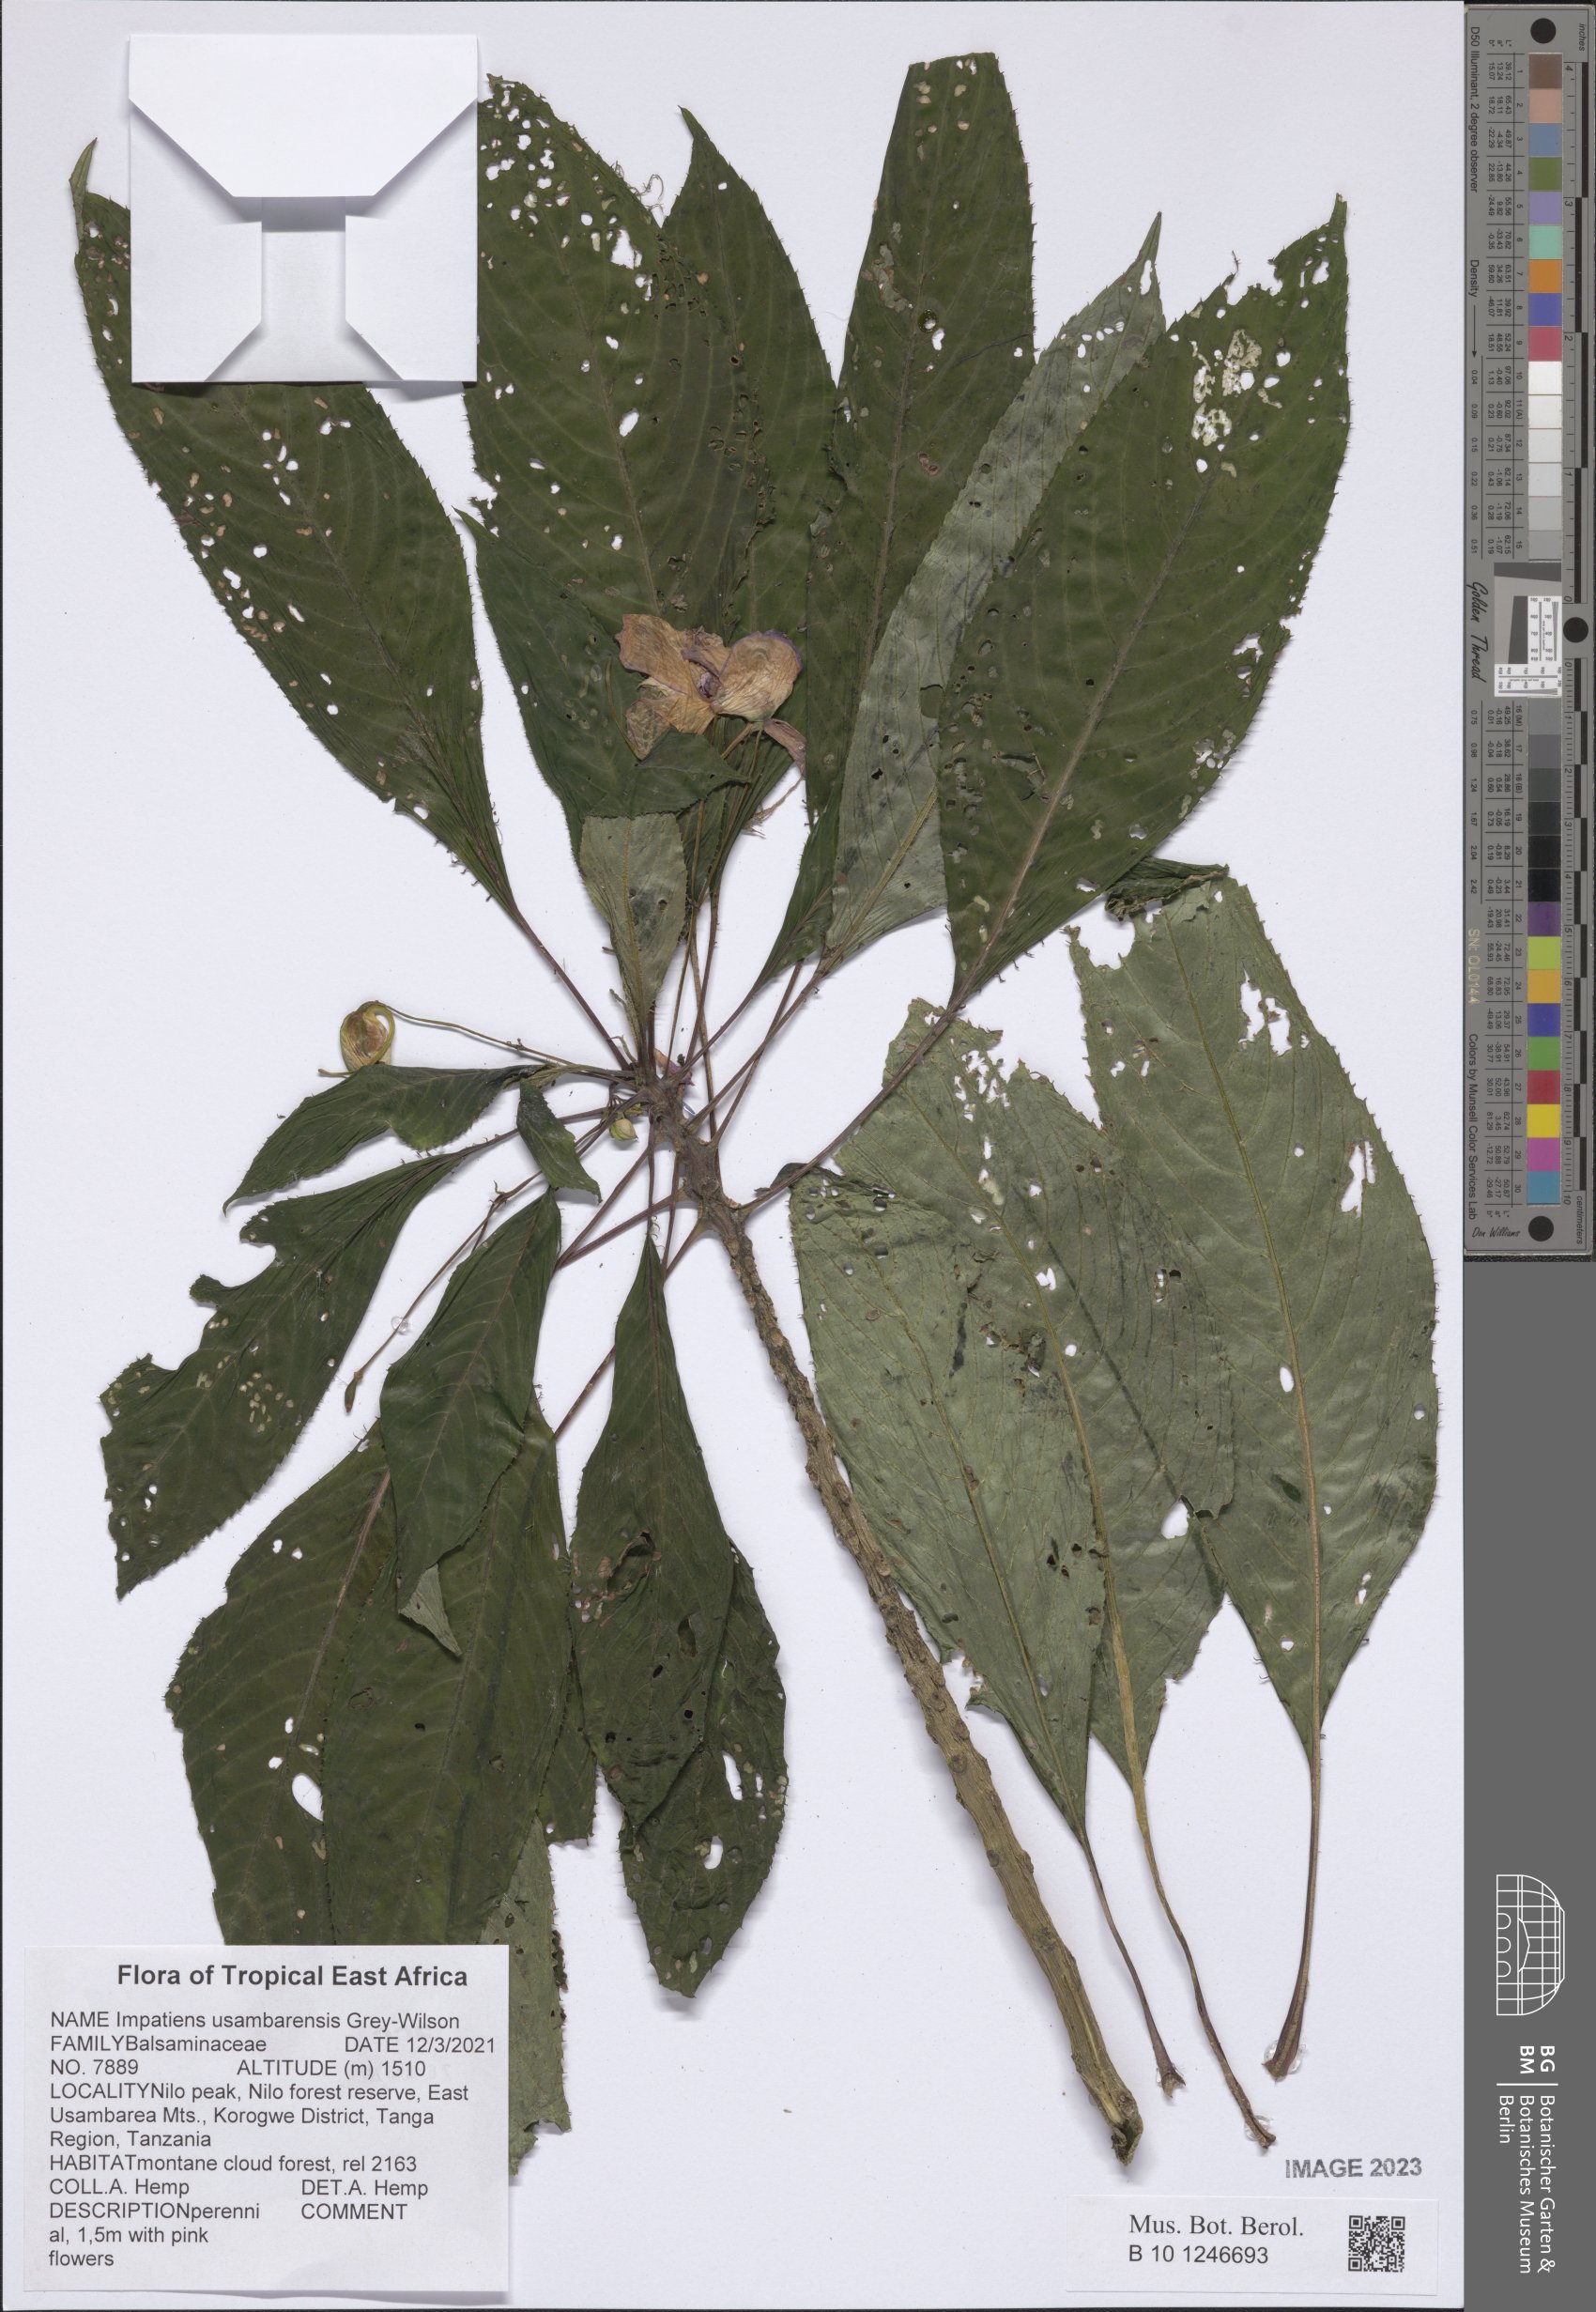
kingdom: Plantae
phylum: Tracheophyta
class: Magnoliopsida
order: Ericales
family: Balsaminaceae
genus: Impatiens
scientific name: Impatiens usambarensis
